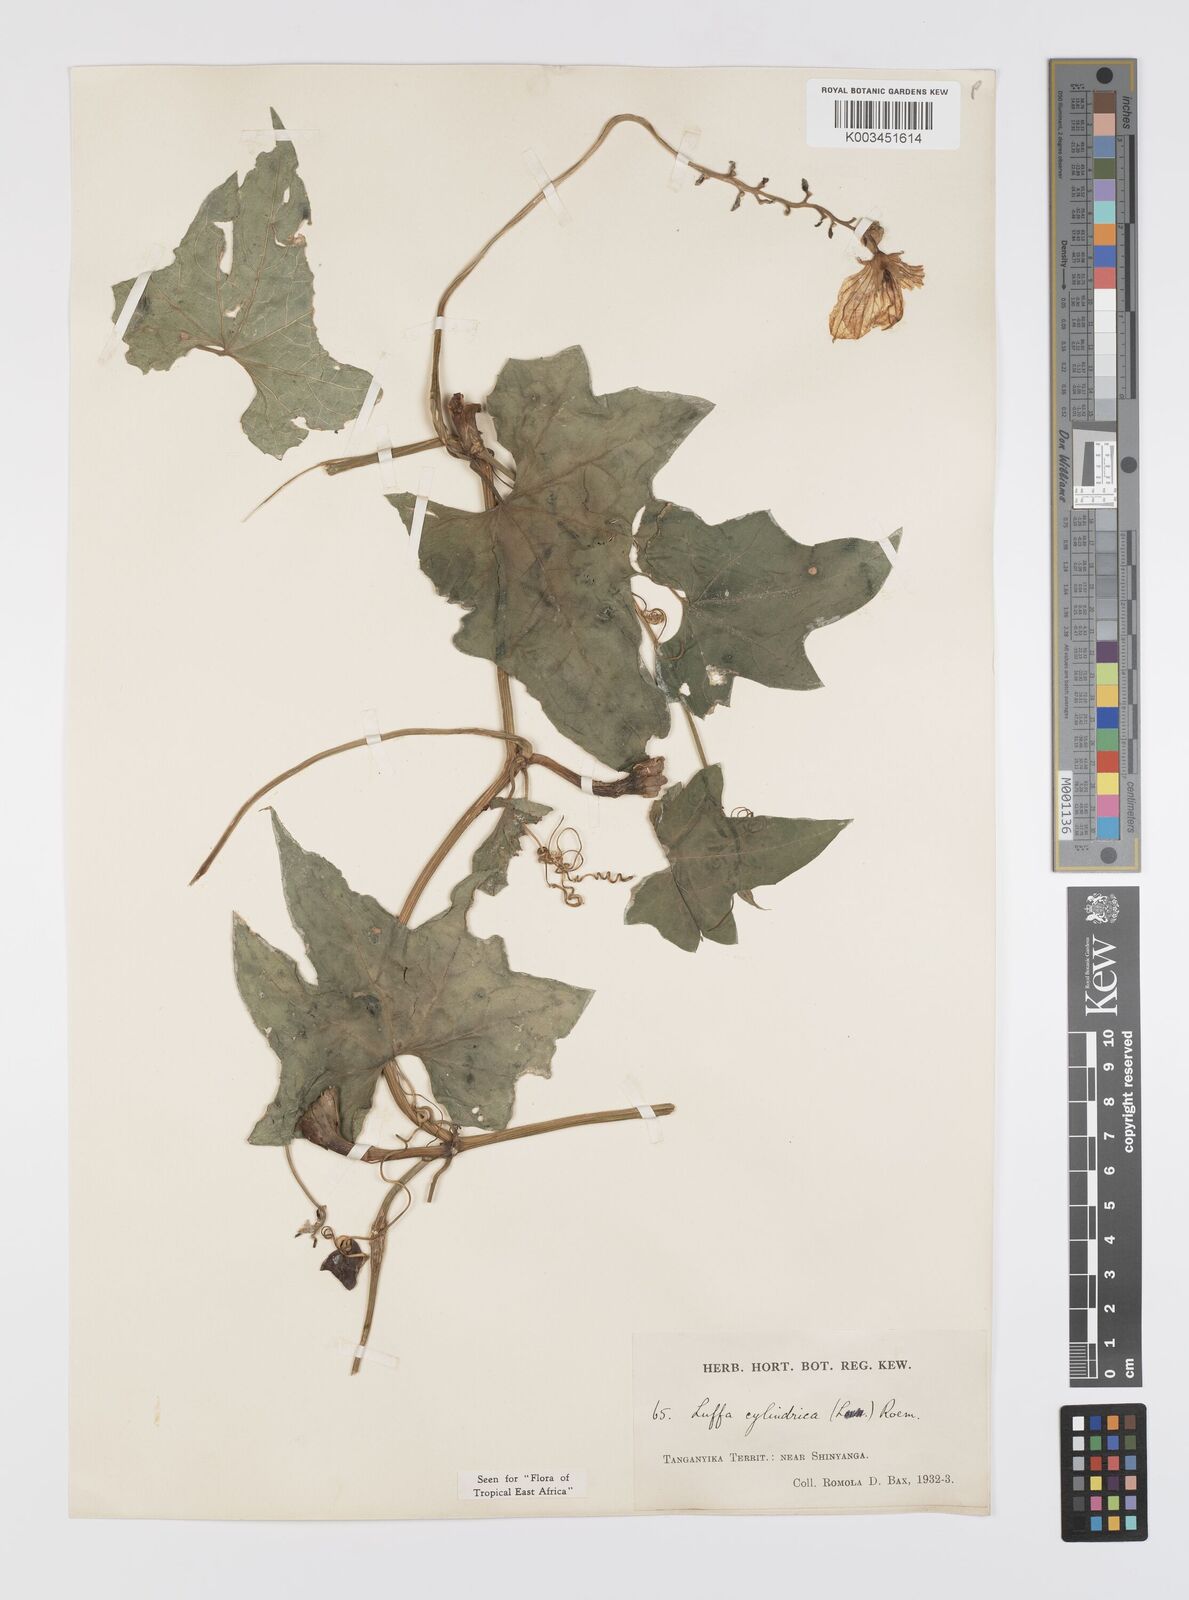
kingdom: Plantae
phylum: Tracheophyta
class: Magnoliopsida
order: Cucurbitales
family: Cucurbitaceae
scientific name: Cucurbitaceae
